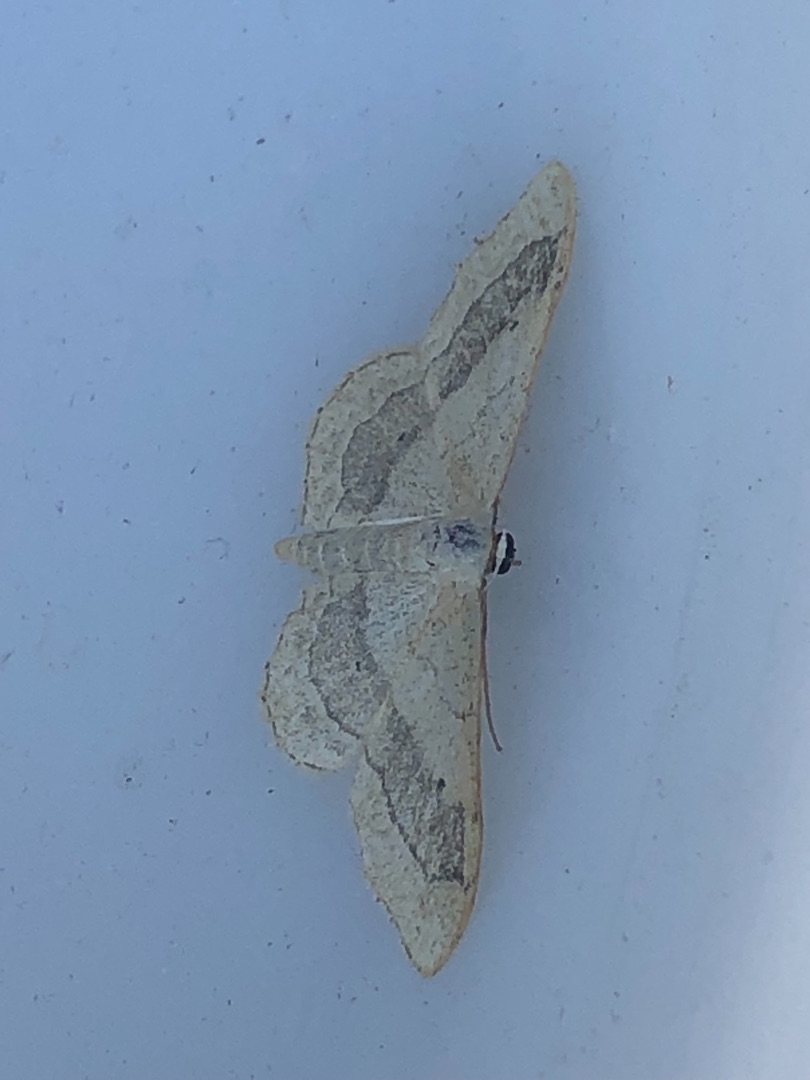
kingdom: Animalia
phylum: Arthropoda
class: Insecta
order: Lepidoptera
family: Geometridae
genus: Idaea
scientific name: Idaea aversata
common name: Vinkelstreget løvmåler
